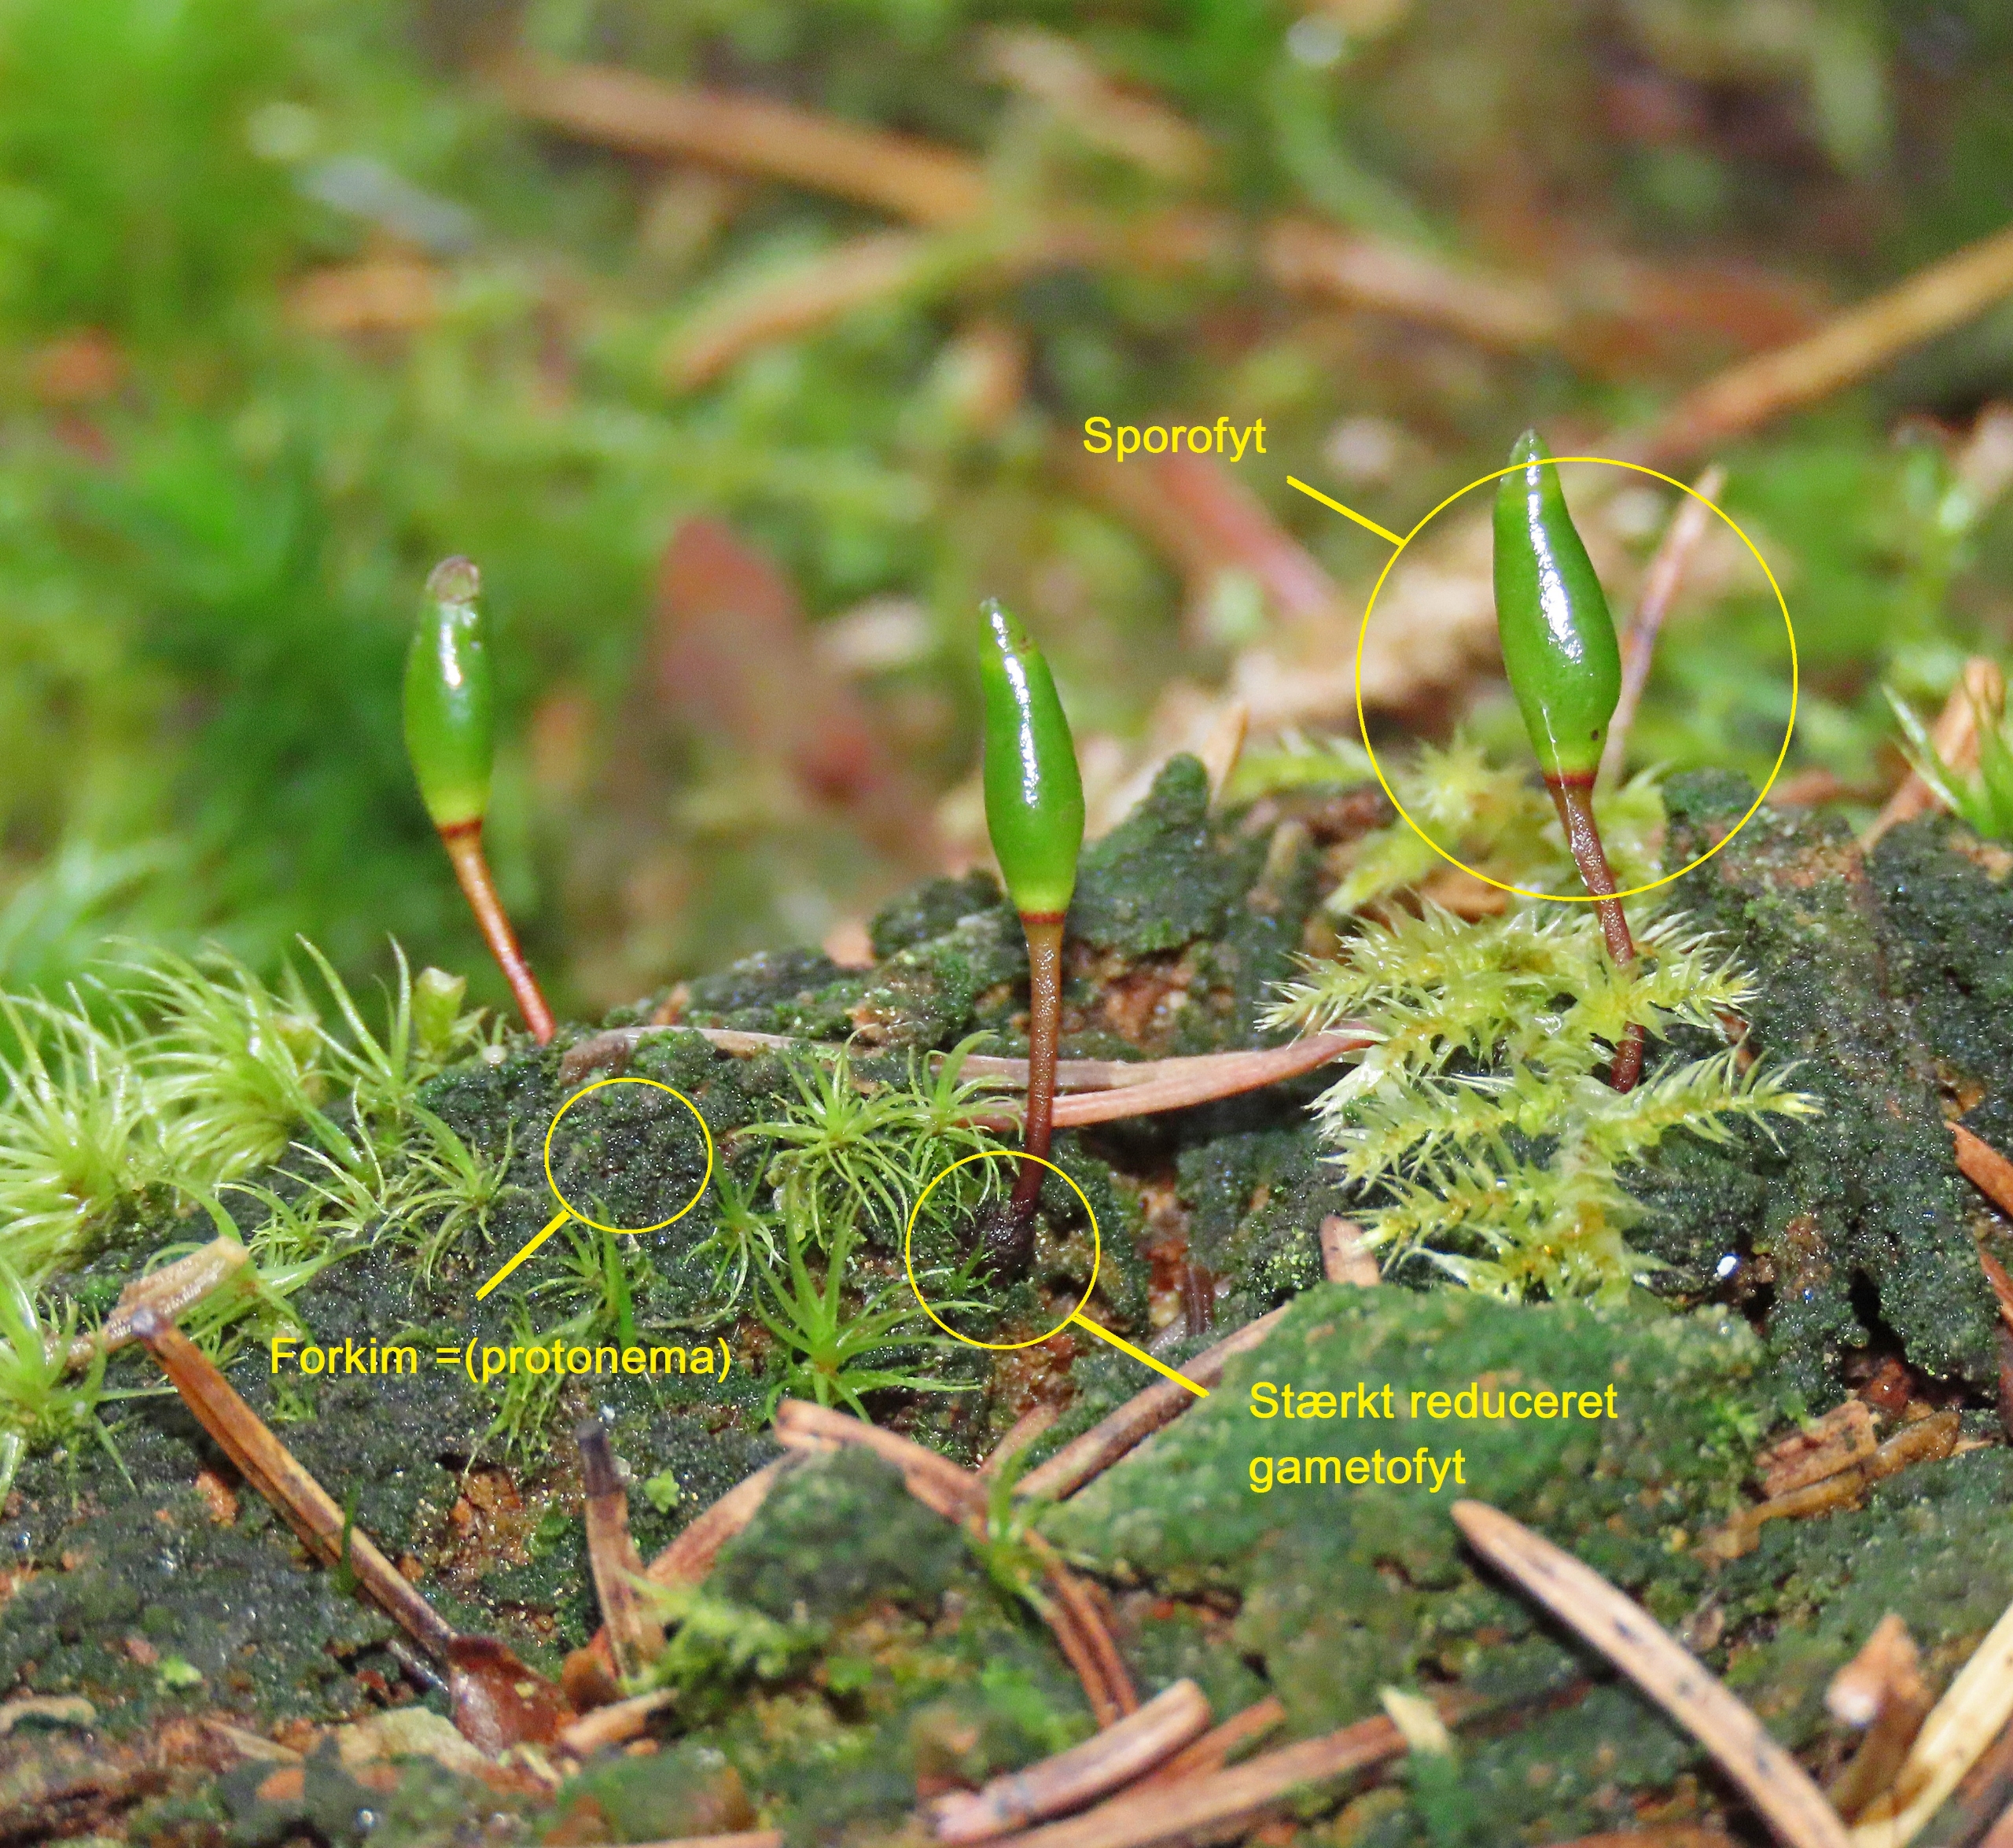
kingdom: Plantae
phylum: Bryophyta
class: Bryopsida
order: Buxbaumiales
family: Buxbaumiaceae
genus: Buxbaumia
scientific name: Buxbaumia viridis
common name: Grøn buxbaumia
